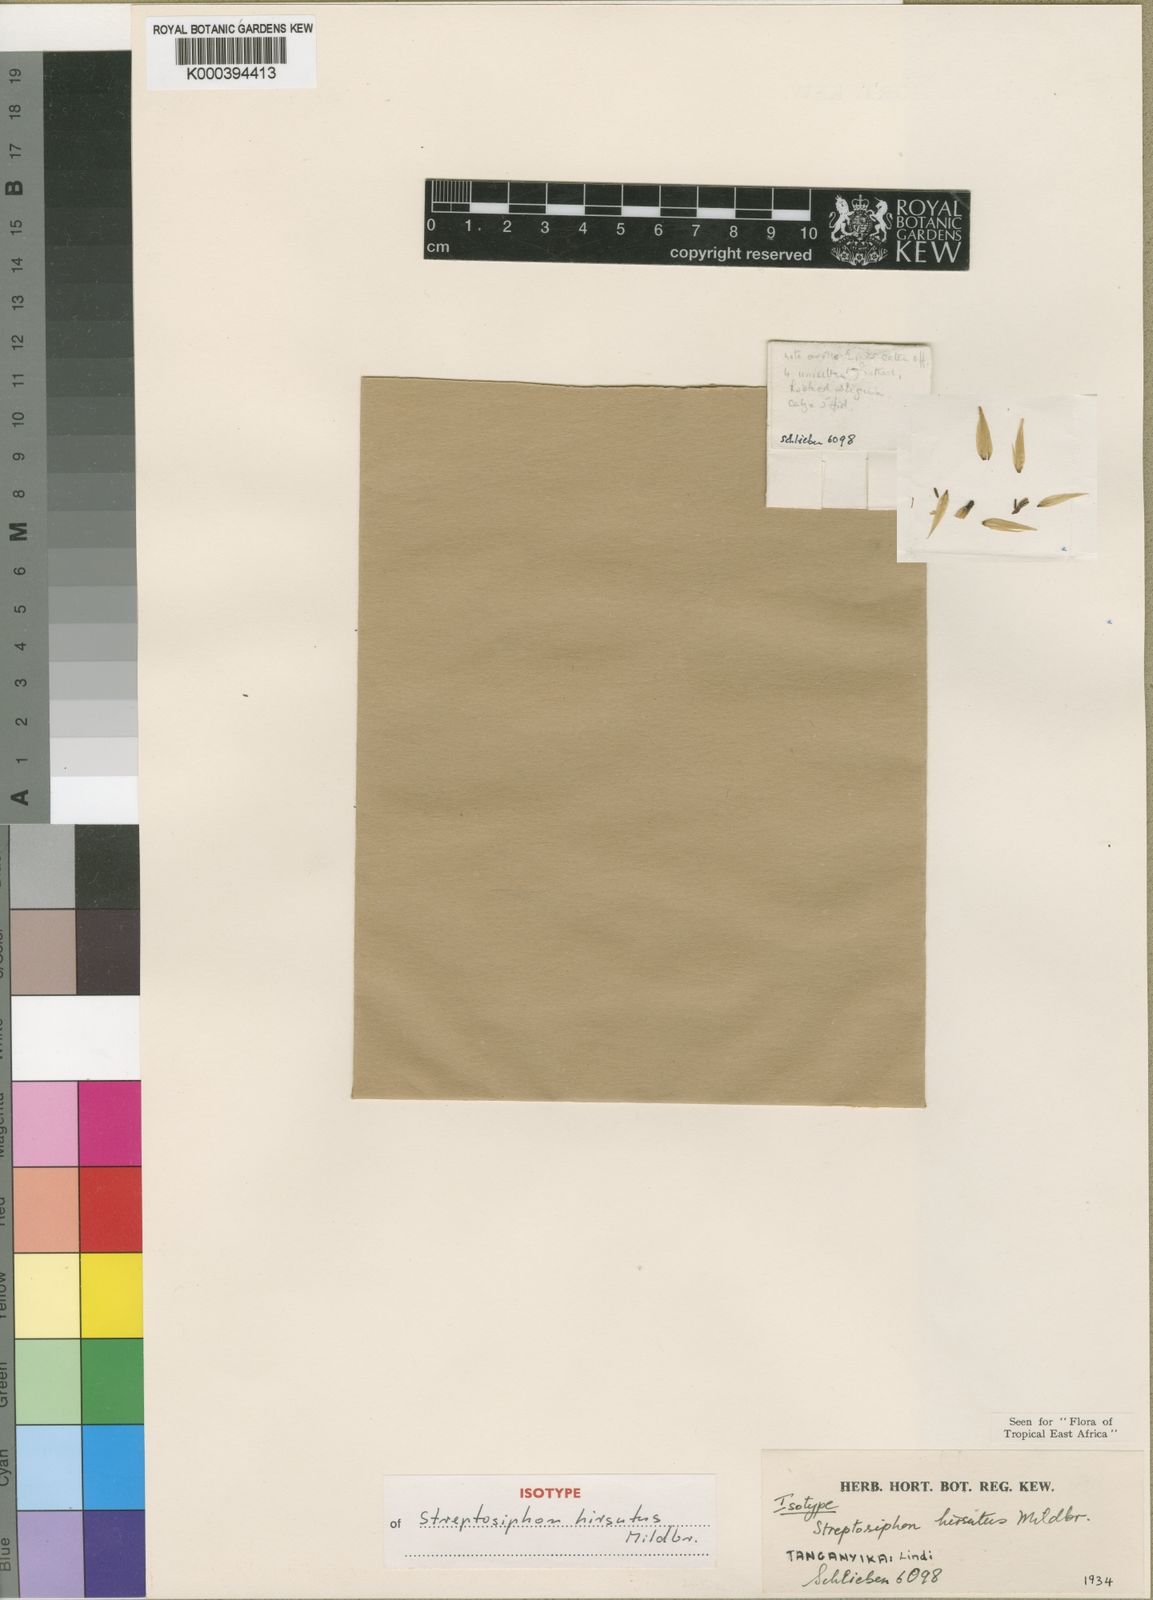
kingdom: Plantae
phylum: Tracheophyta
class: Magnoliopsida
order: Lamiales
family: Acanthaceae
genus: Streptosiphon
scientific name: Streptosiphon hirsutus
